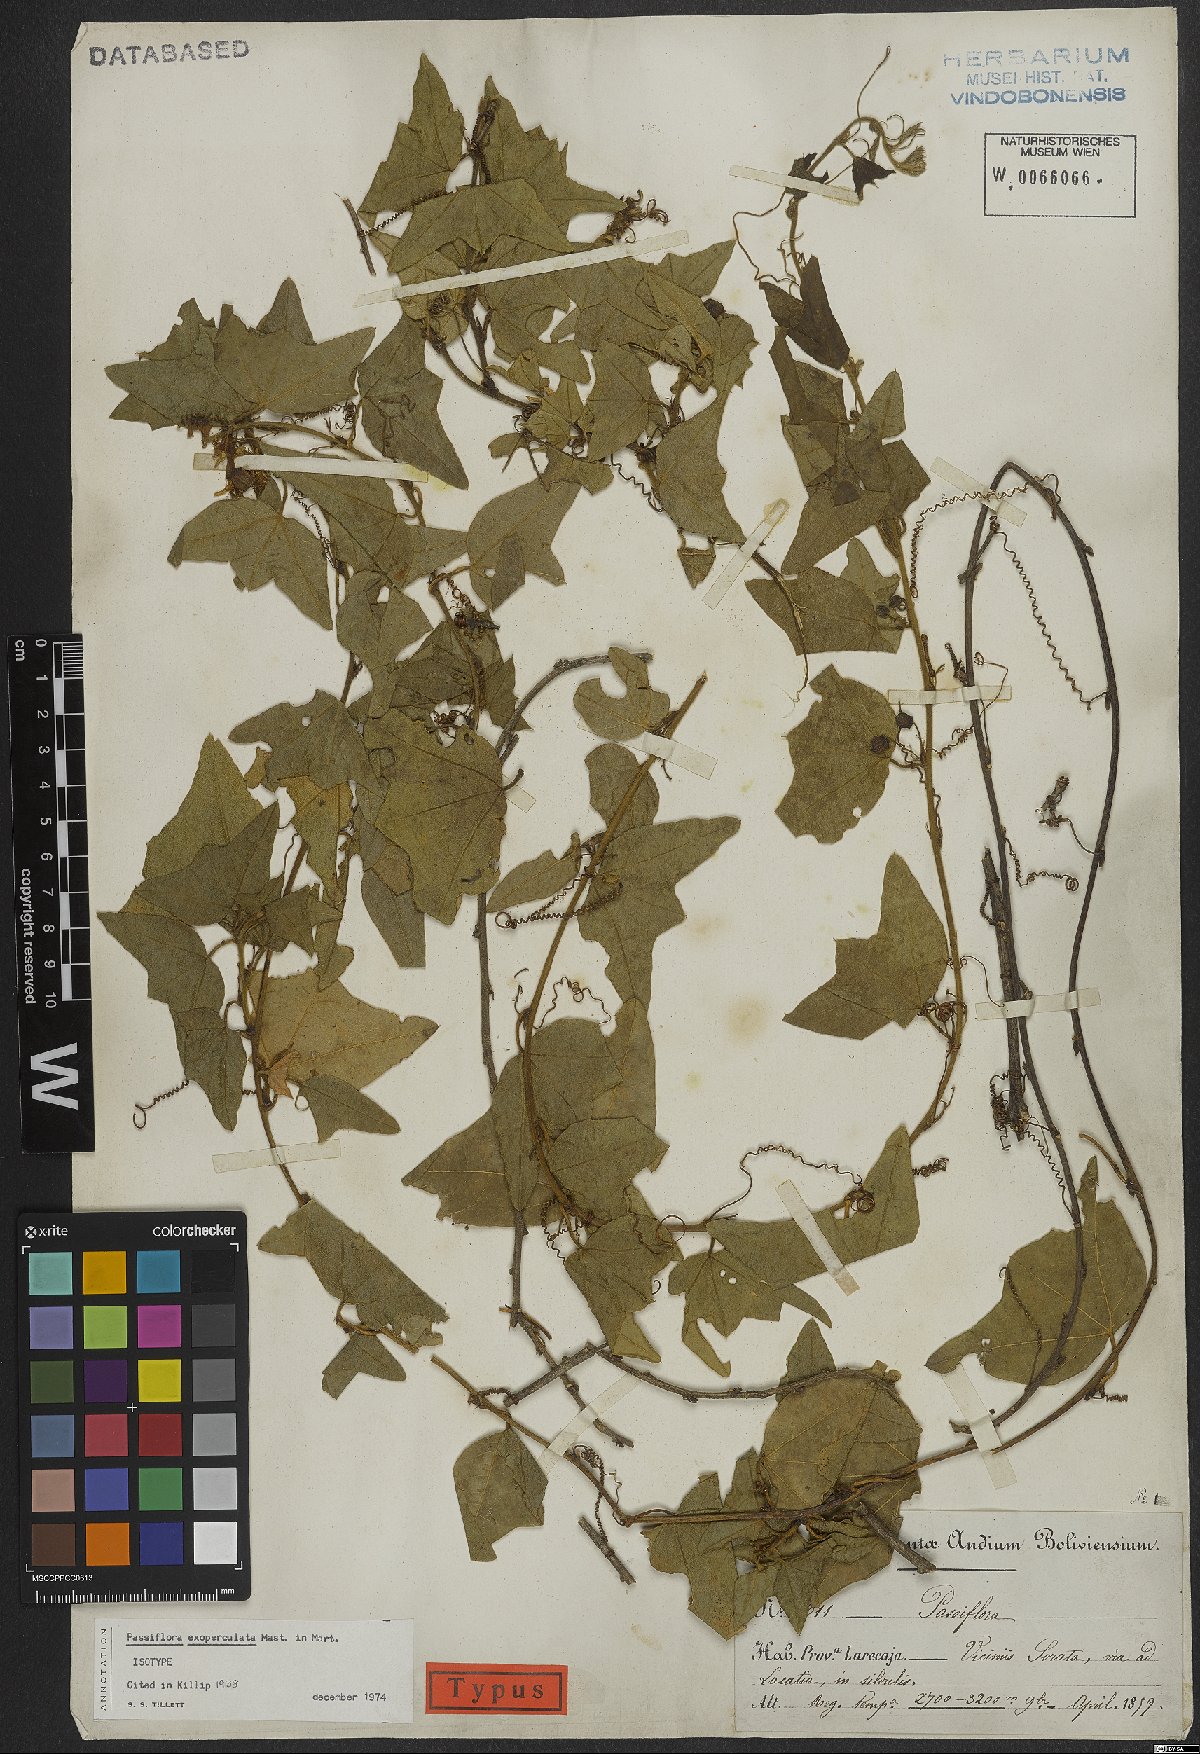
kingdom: Plantae
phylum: Tracheophyta
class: Magnoliopsida
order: Malpighiales
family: Passifloraceae
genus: Passiflora
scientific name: Passiflora exoperculata
